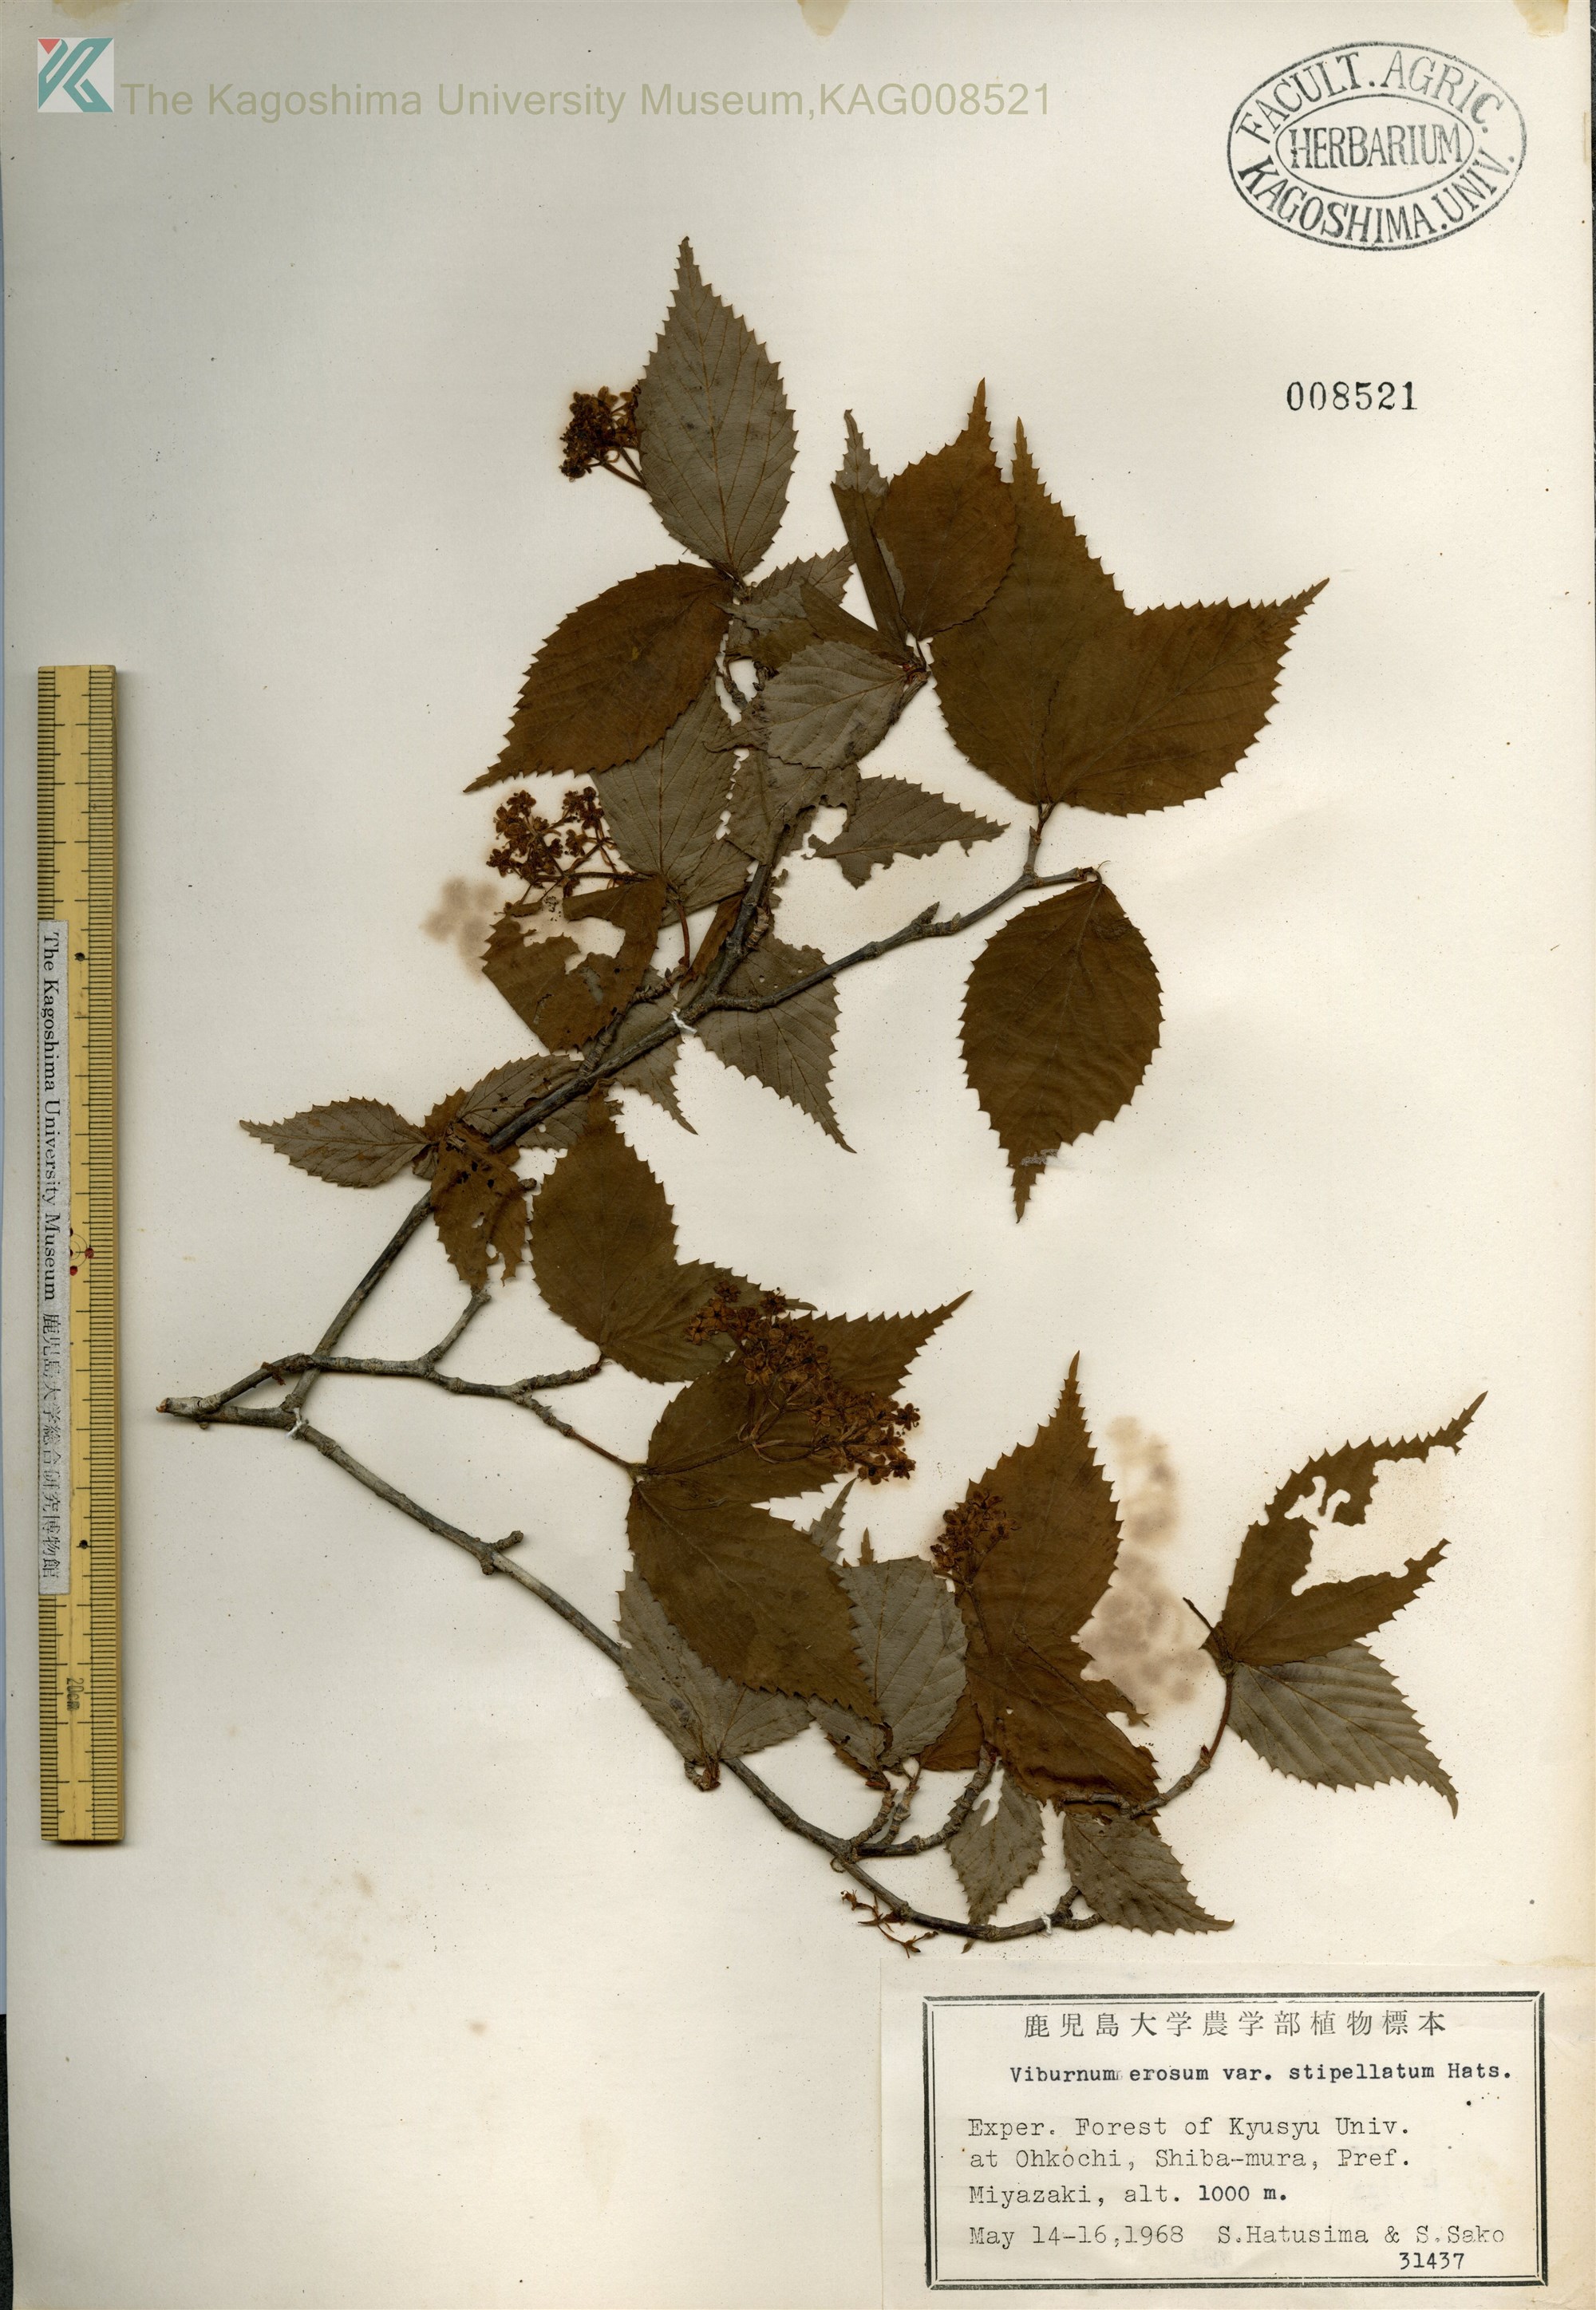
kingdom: Plantae
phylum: Tracheophyta
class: Magnoliopsida
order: Dipsacales
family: Viburnaceae
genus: Viburnum
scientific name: Viburnum erosum
